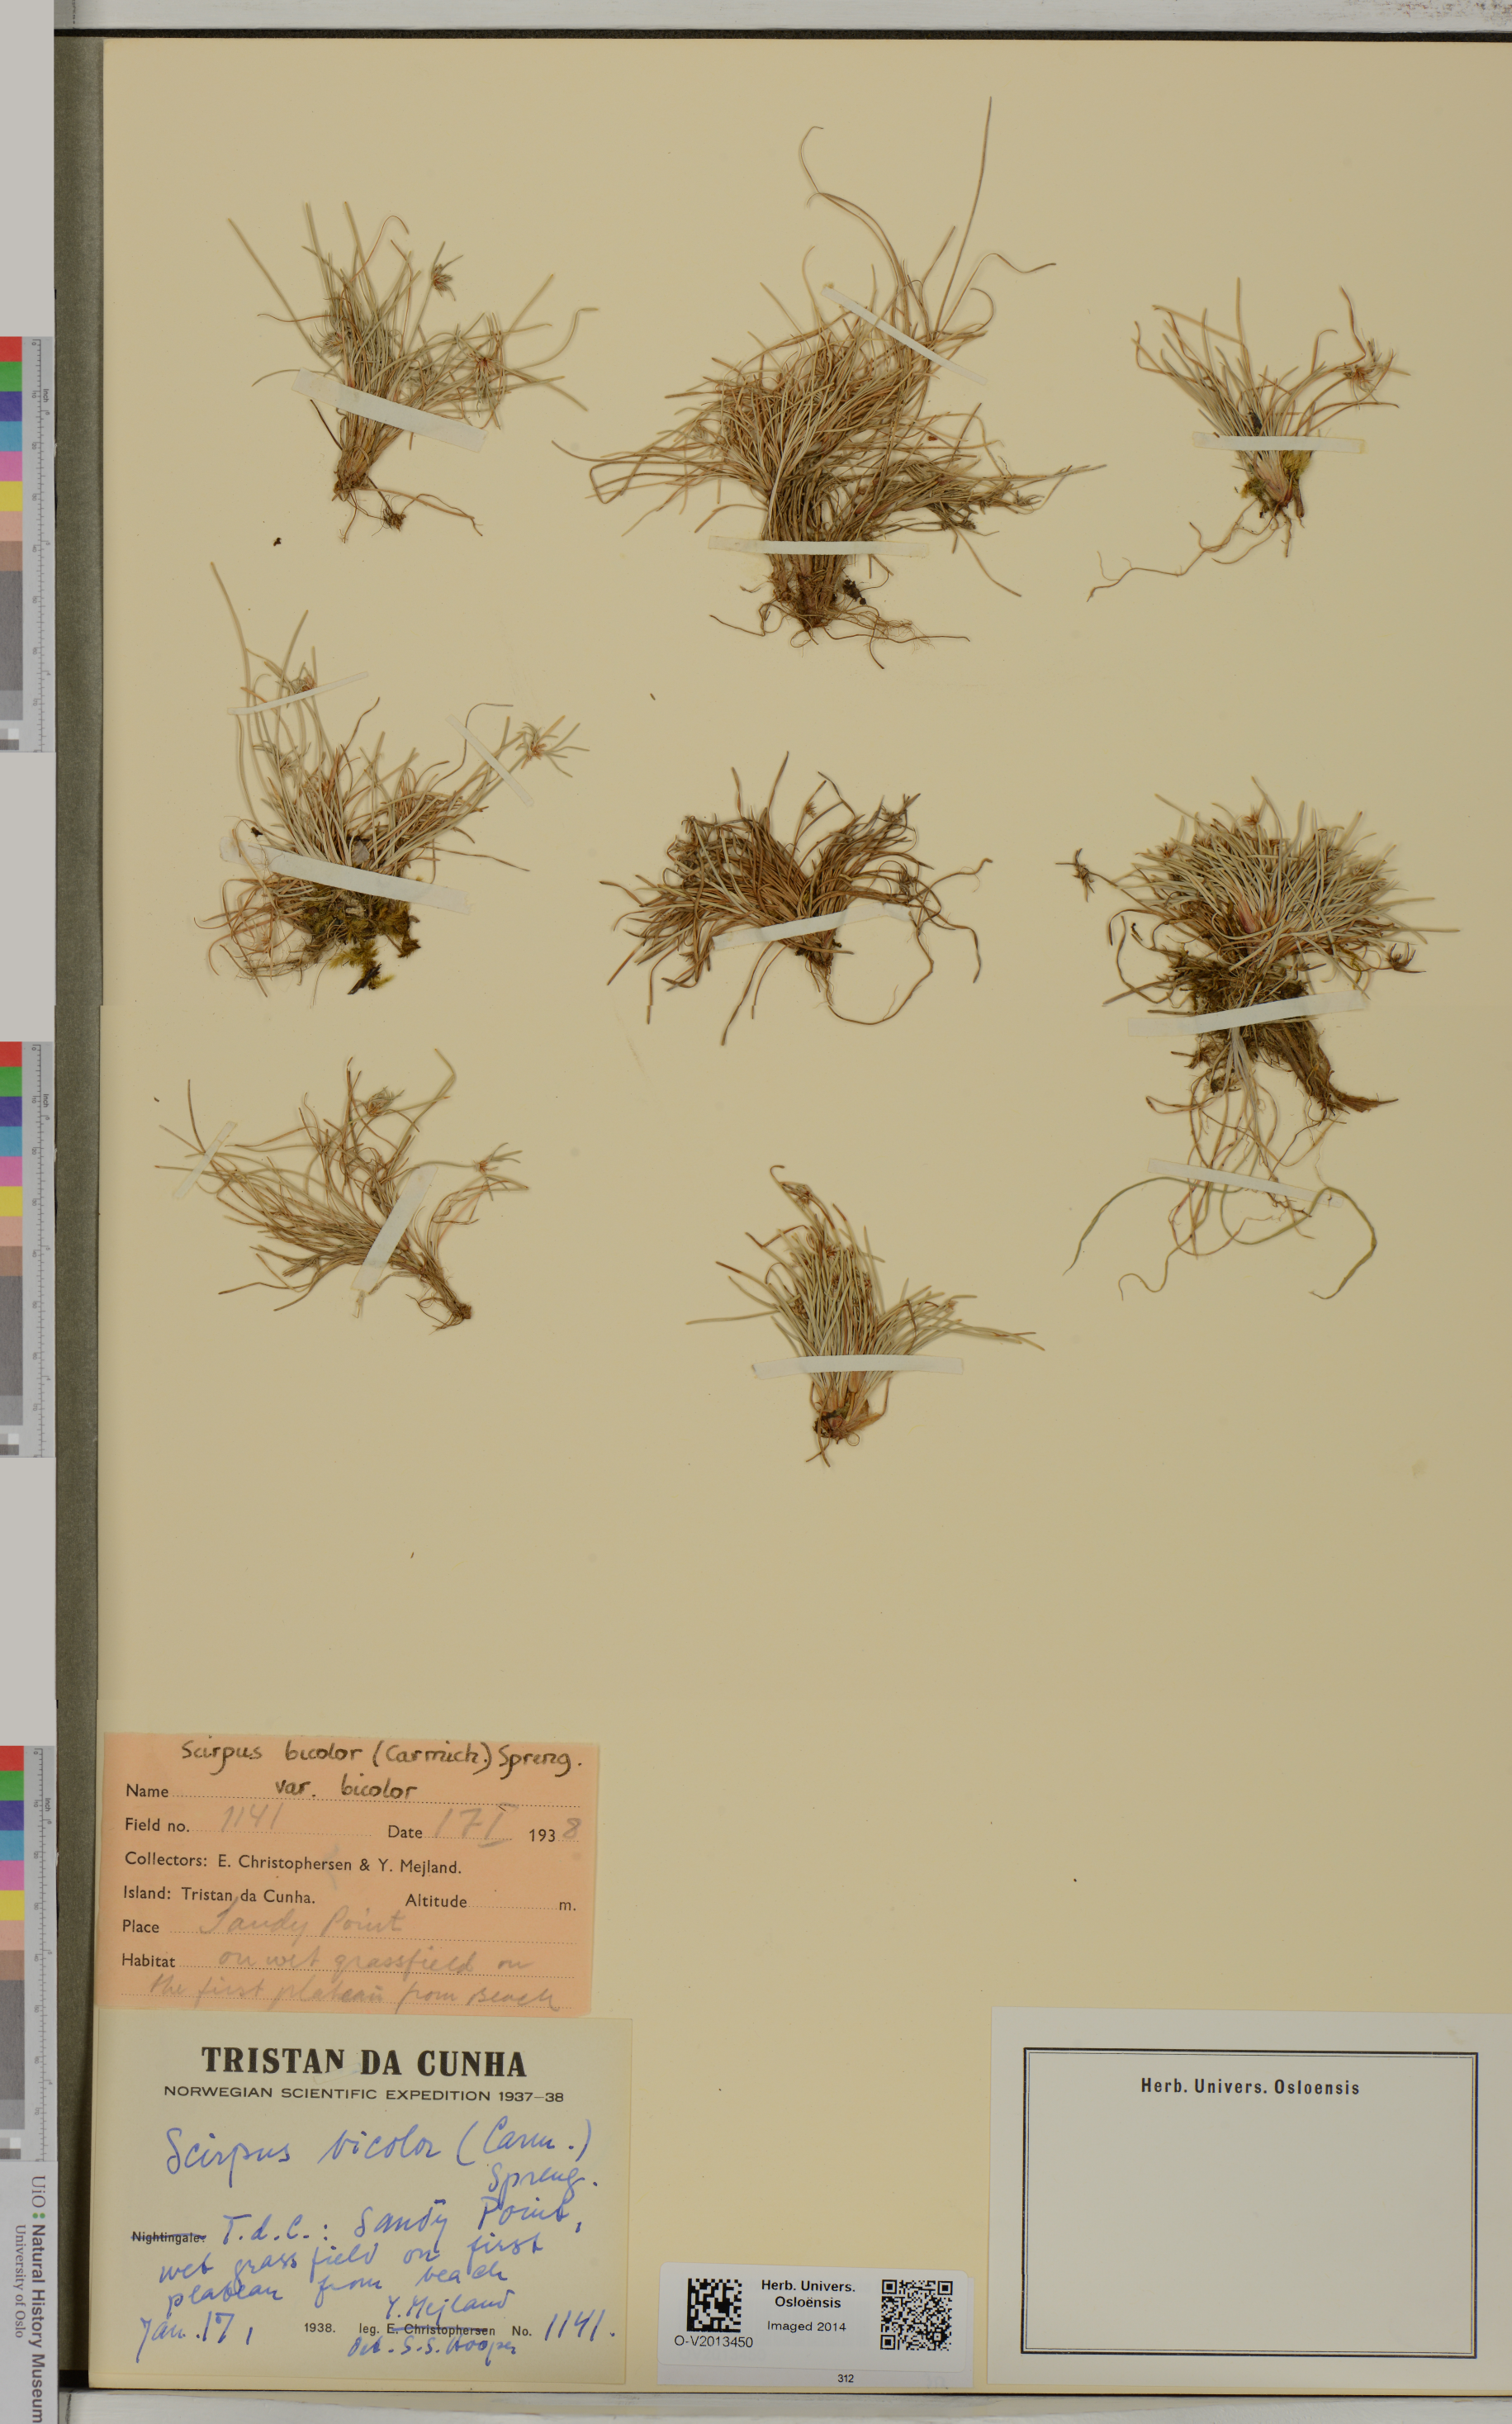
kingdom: Plantae
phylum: Tracheophyta
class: Liliopsida
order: Poales
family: Cyperaceae
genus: Isolepis
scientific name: Isolepis bicolor
